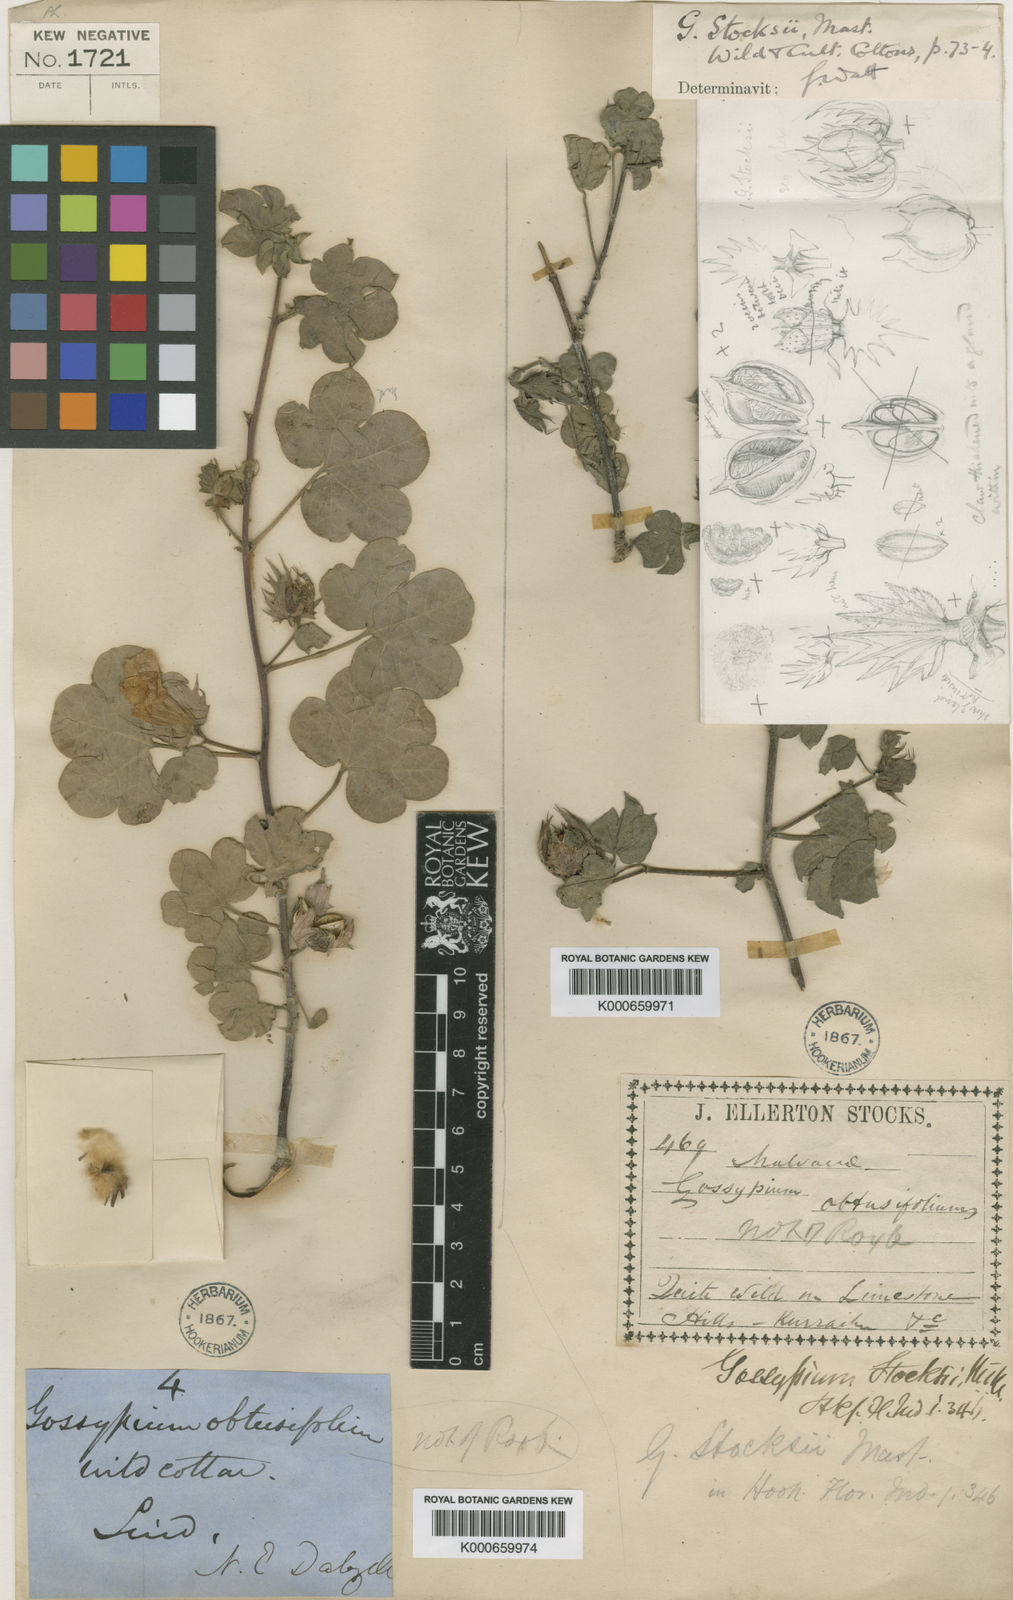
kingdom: Plantae
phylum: Tracheophyta
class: Magnoliopsida
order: Malvales
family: Malvaceae
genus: Gossypium
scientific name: Gossypium stocksii
